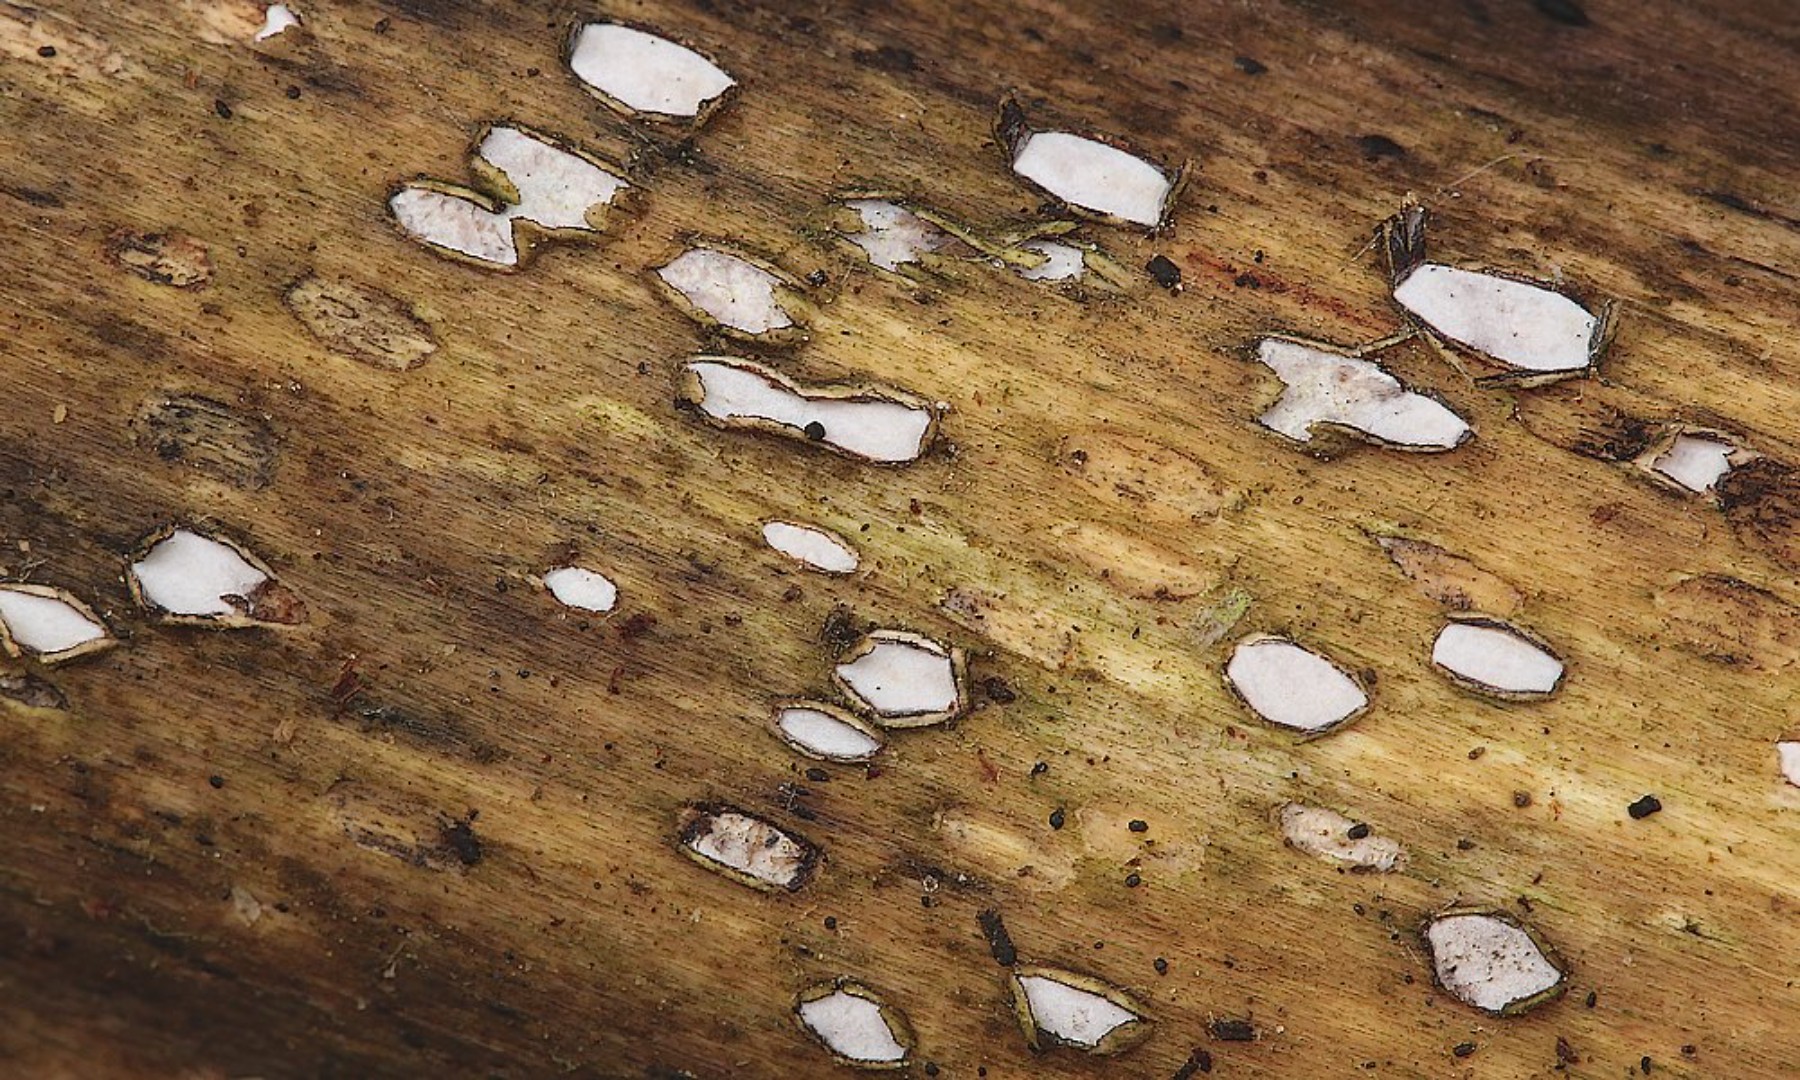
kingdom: Fungi
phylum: Ascomycota
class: Leotiomycetes
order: Chaetomellales
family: Marthamycetaceae
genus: Propolis
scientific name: Propolis farinosa
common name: almindelig vedsprængerskive
